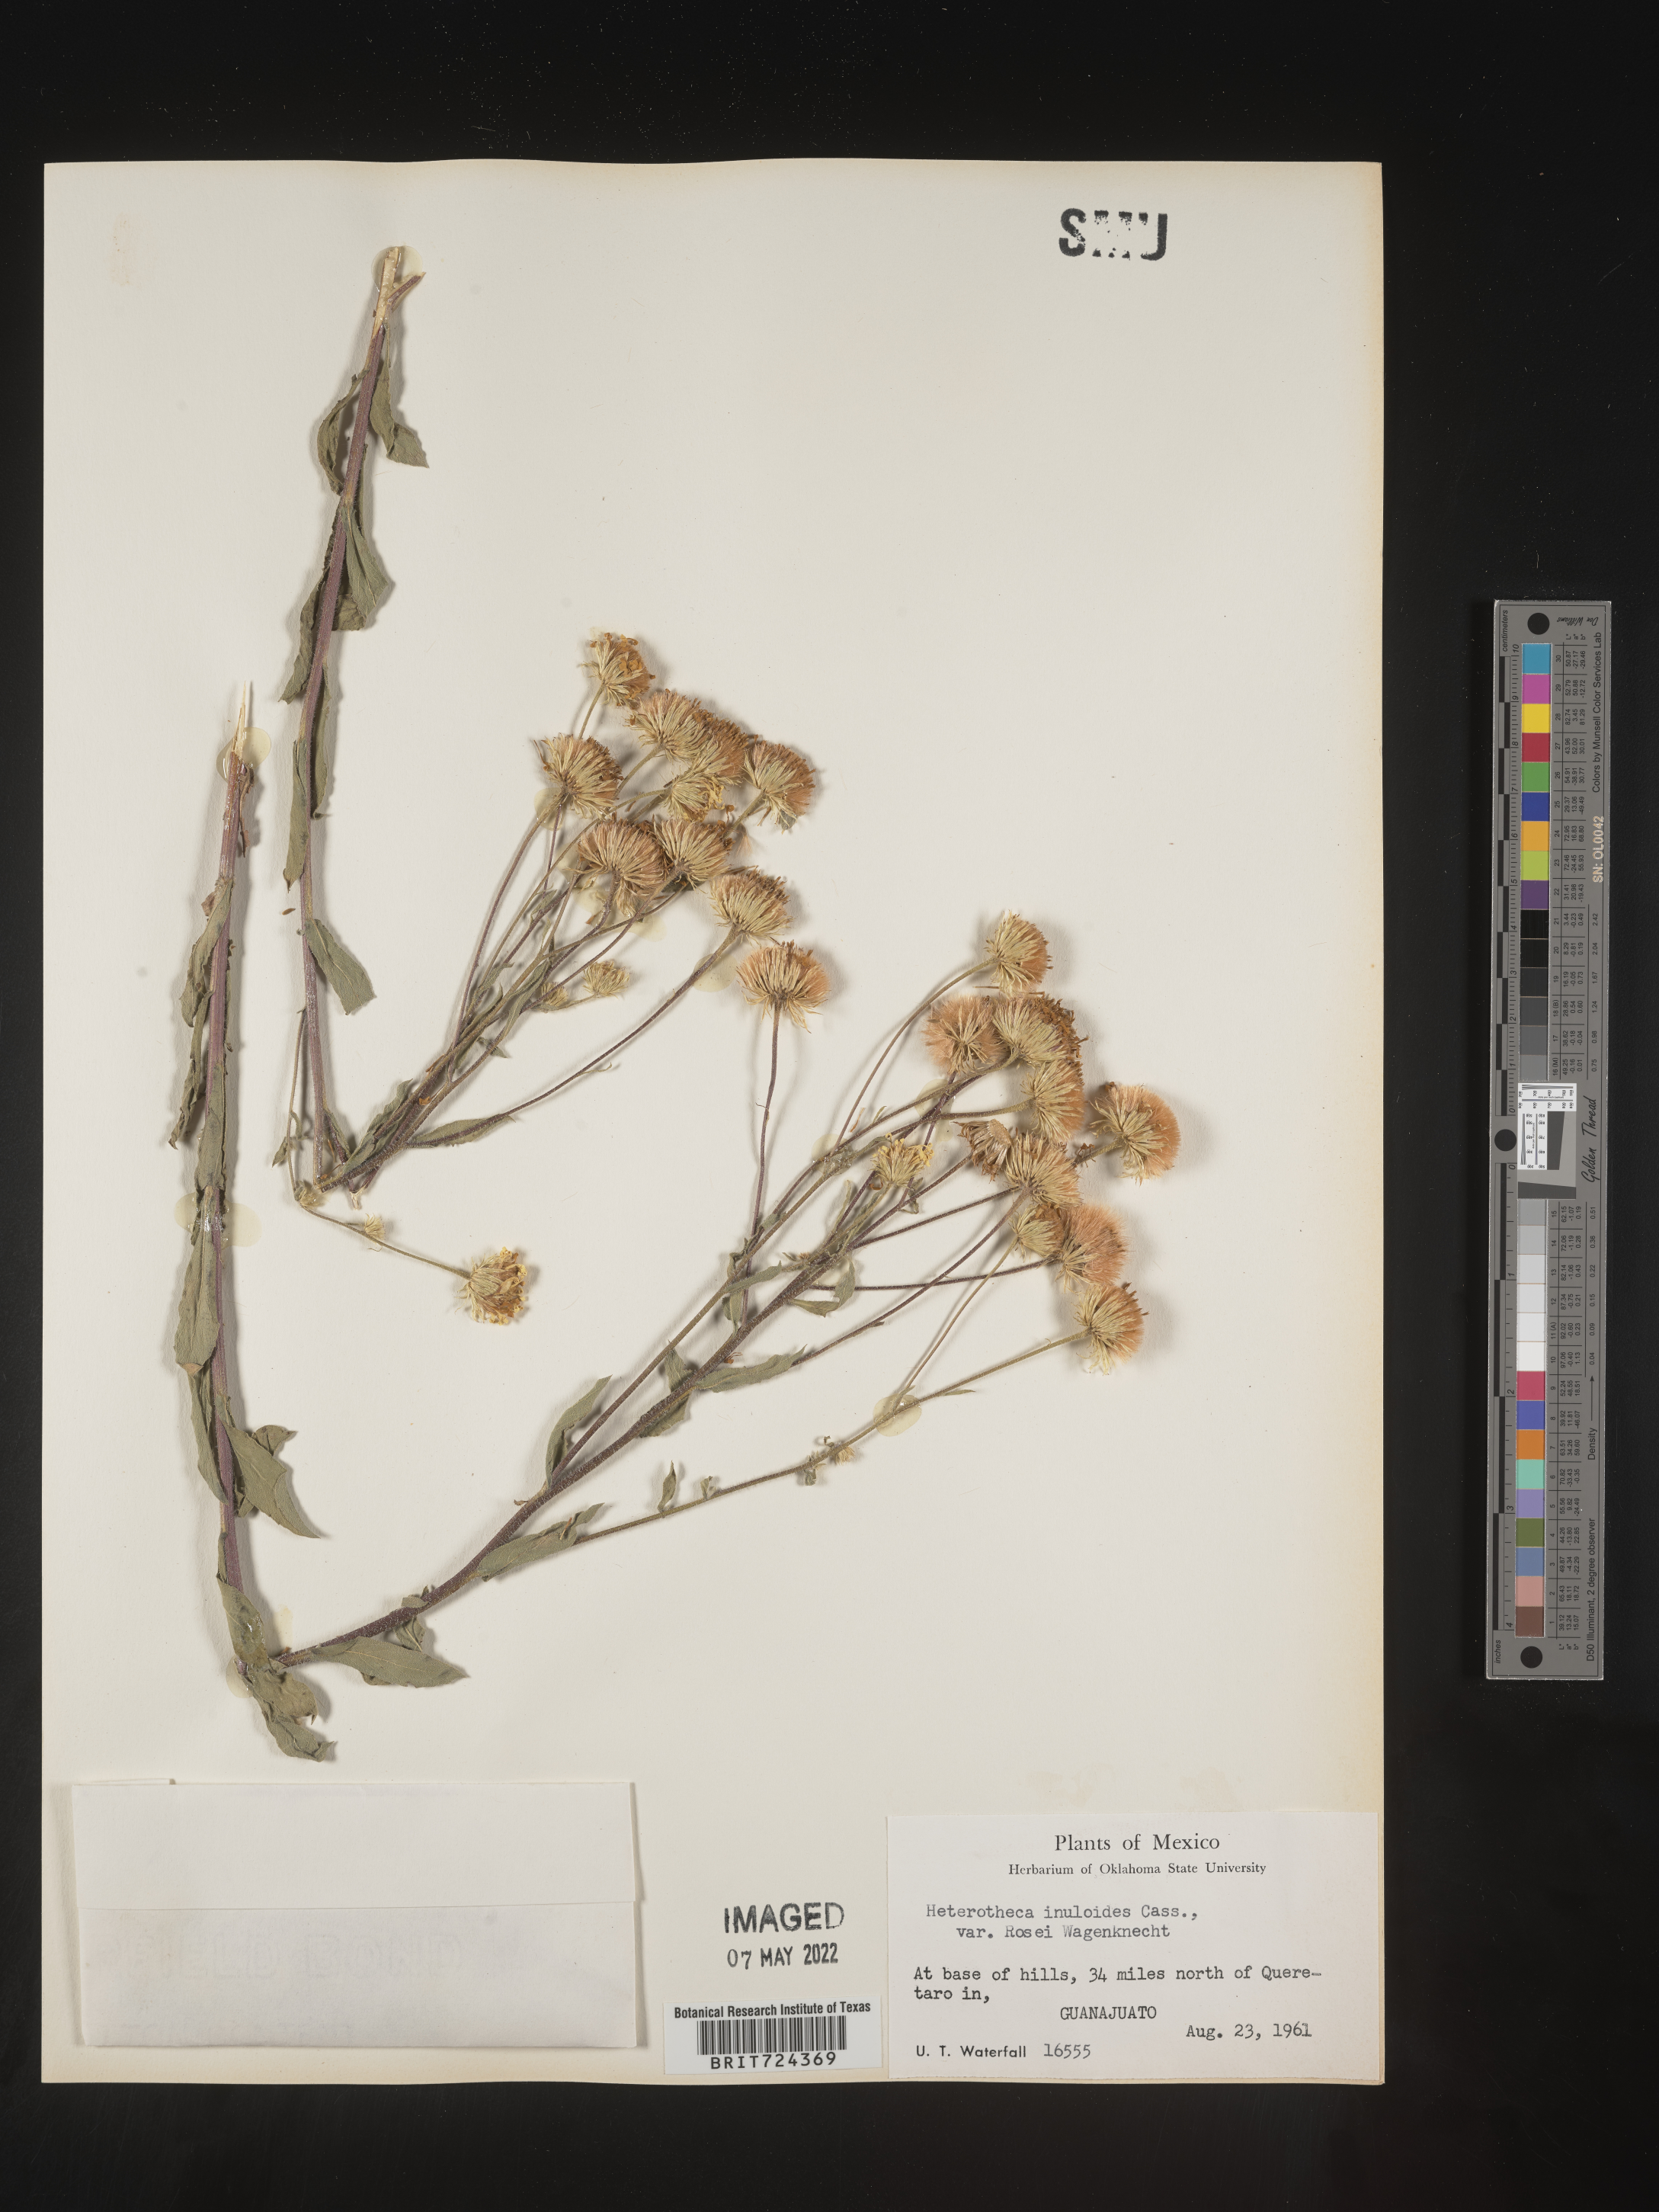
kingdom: Plantae
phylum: Tracheophyta
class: Magnoliopsida
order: Asterales
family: Asteraceae
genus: Heterotheca
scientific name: Heterotheca inuloides
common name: False arnica
